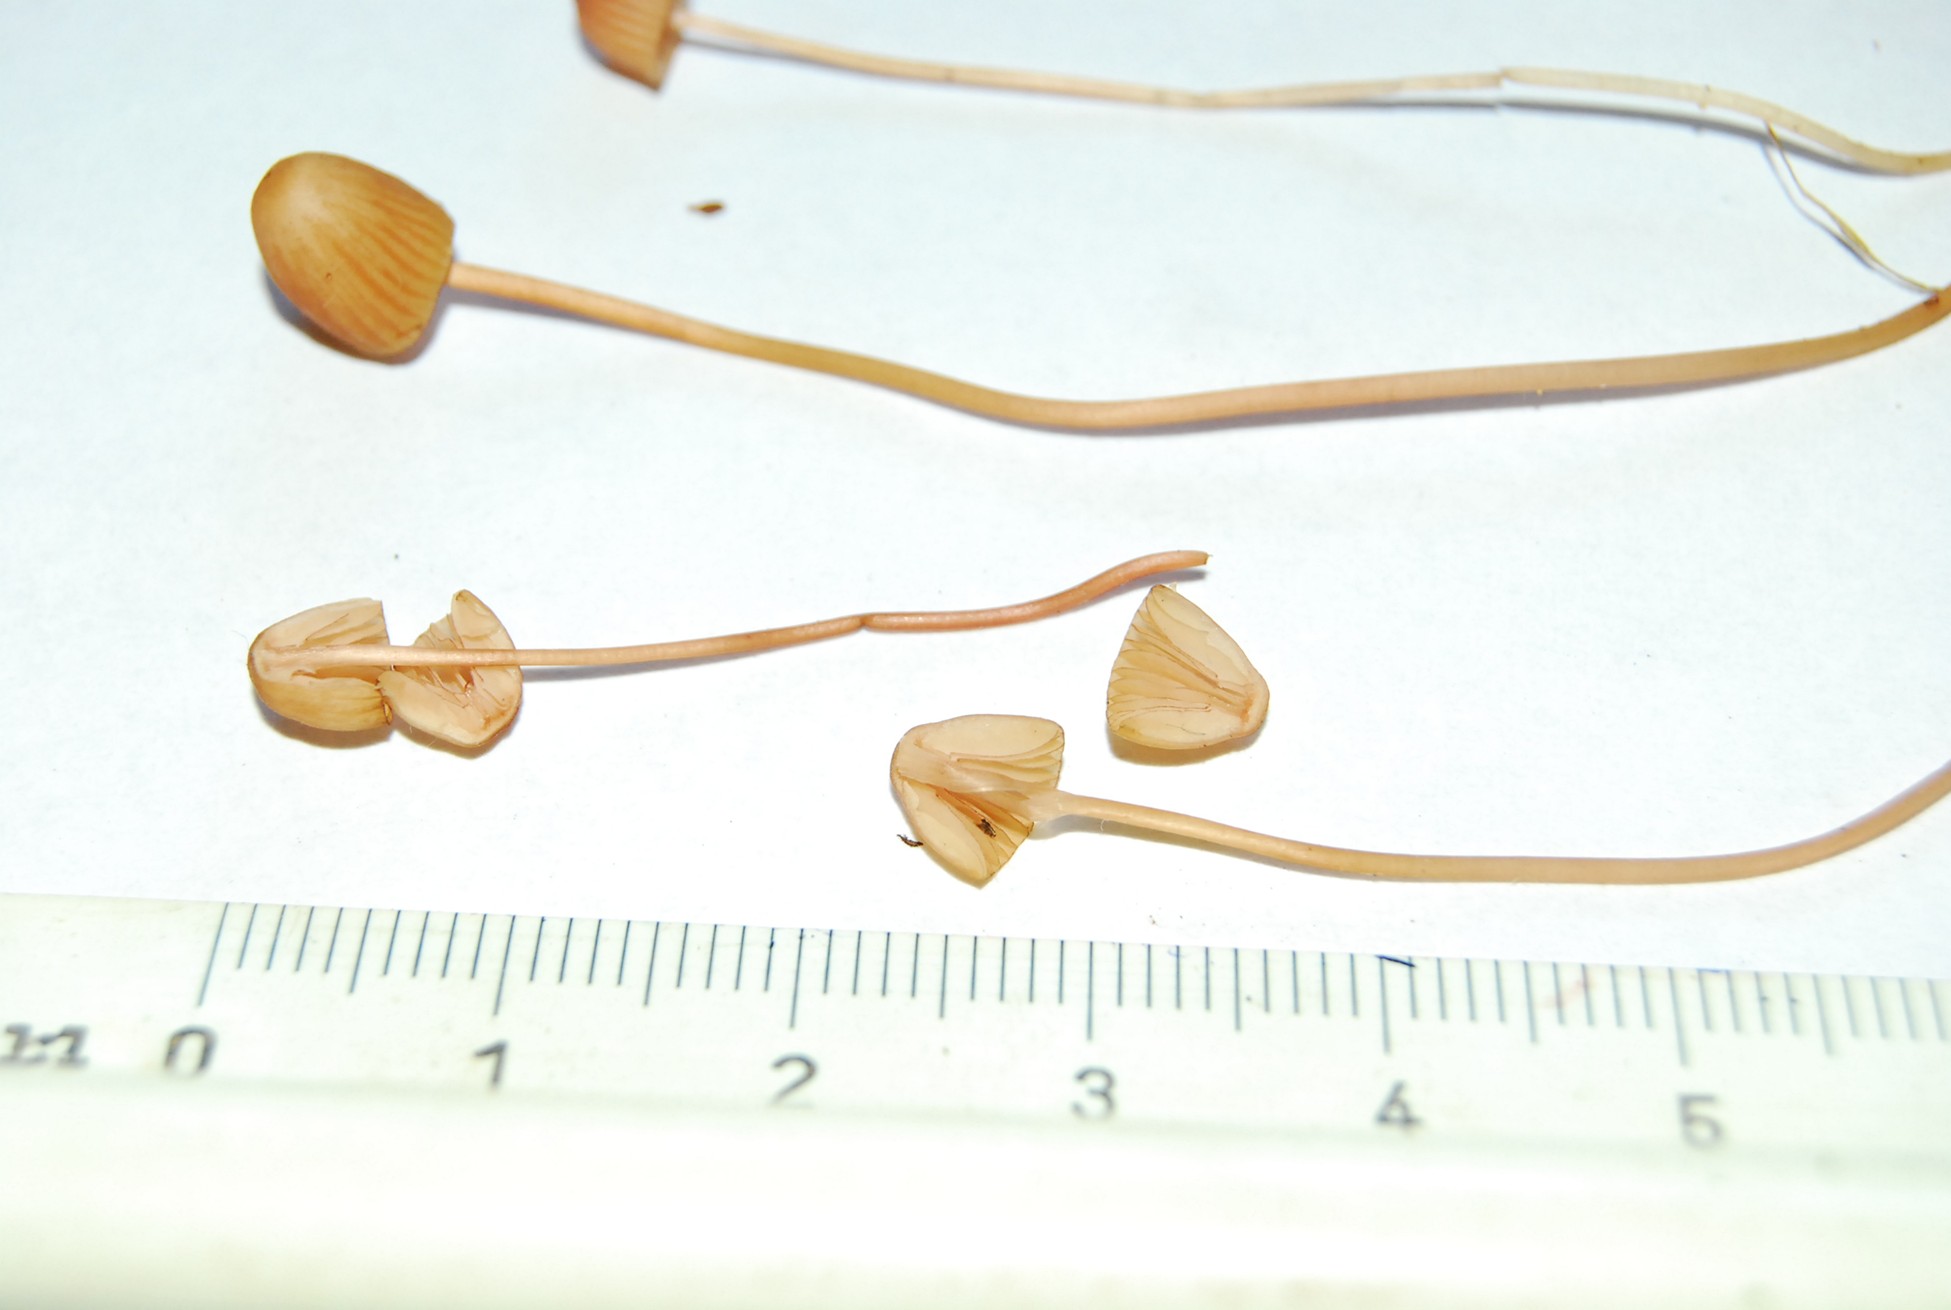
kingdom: Fungi
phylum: Basidiomycota
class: Agaricomycetes
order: Agaricales
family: Mycenaceae
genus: Mycena
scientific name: Mycena sanguinolenta
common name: rødmælket huesvamp
